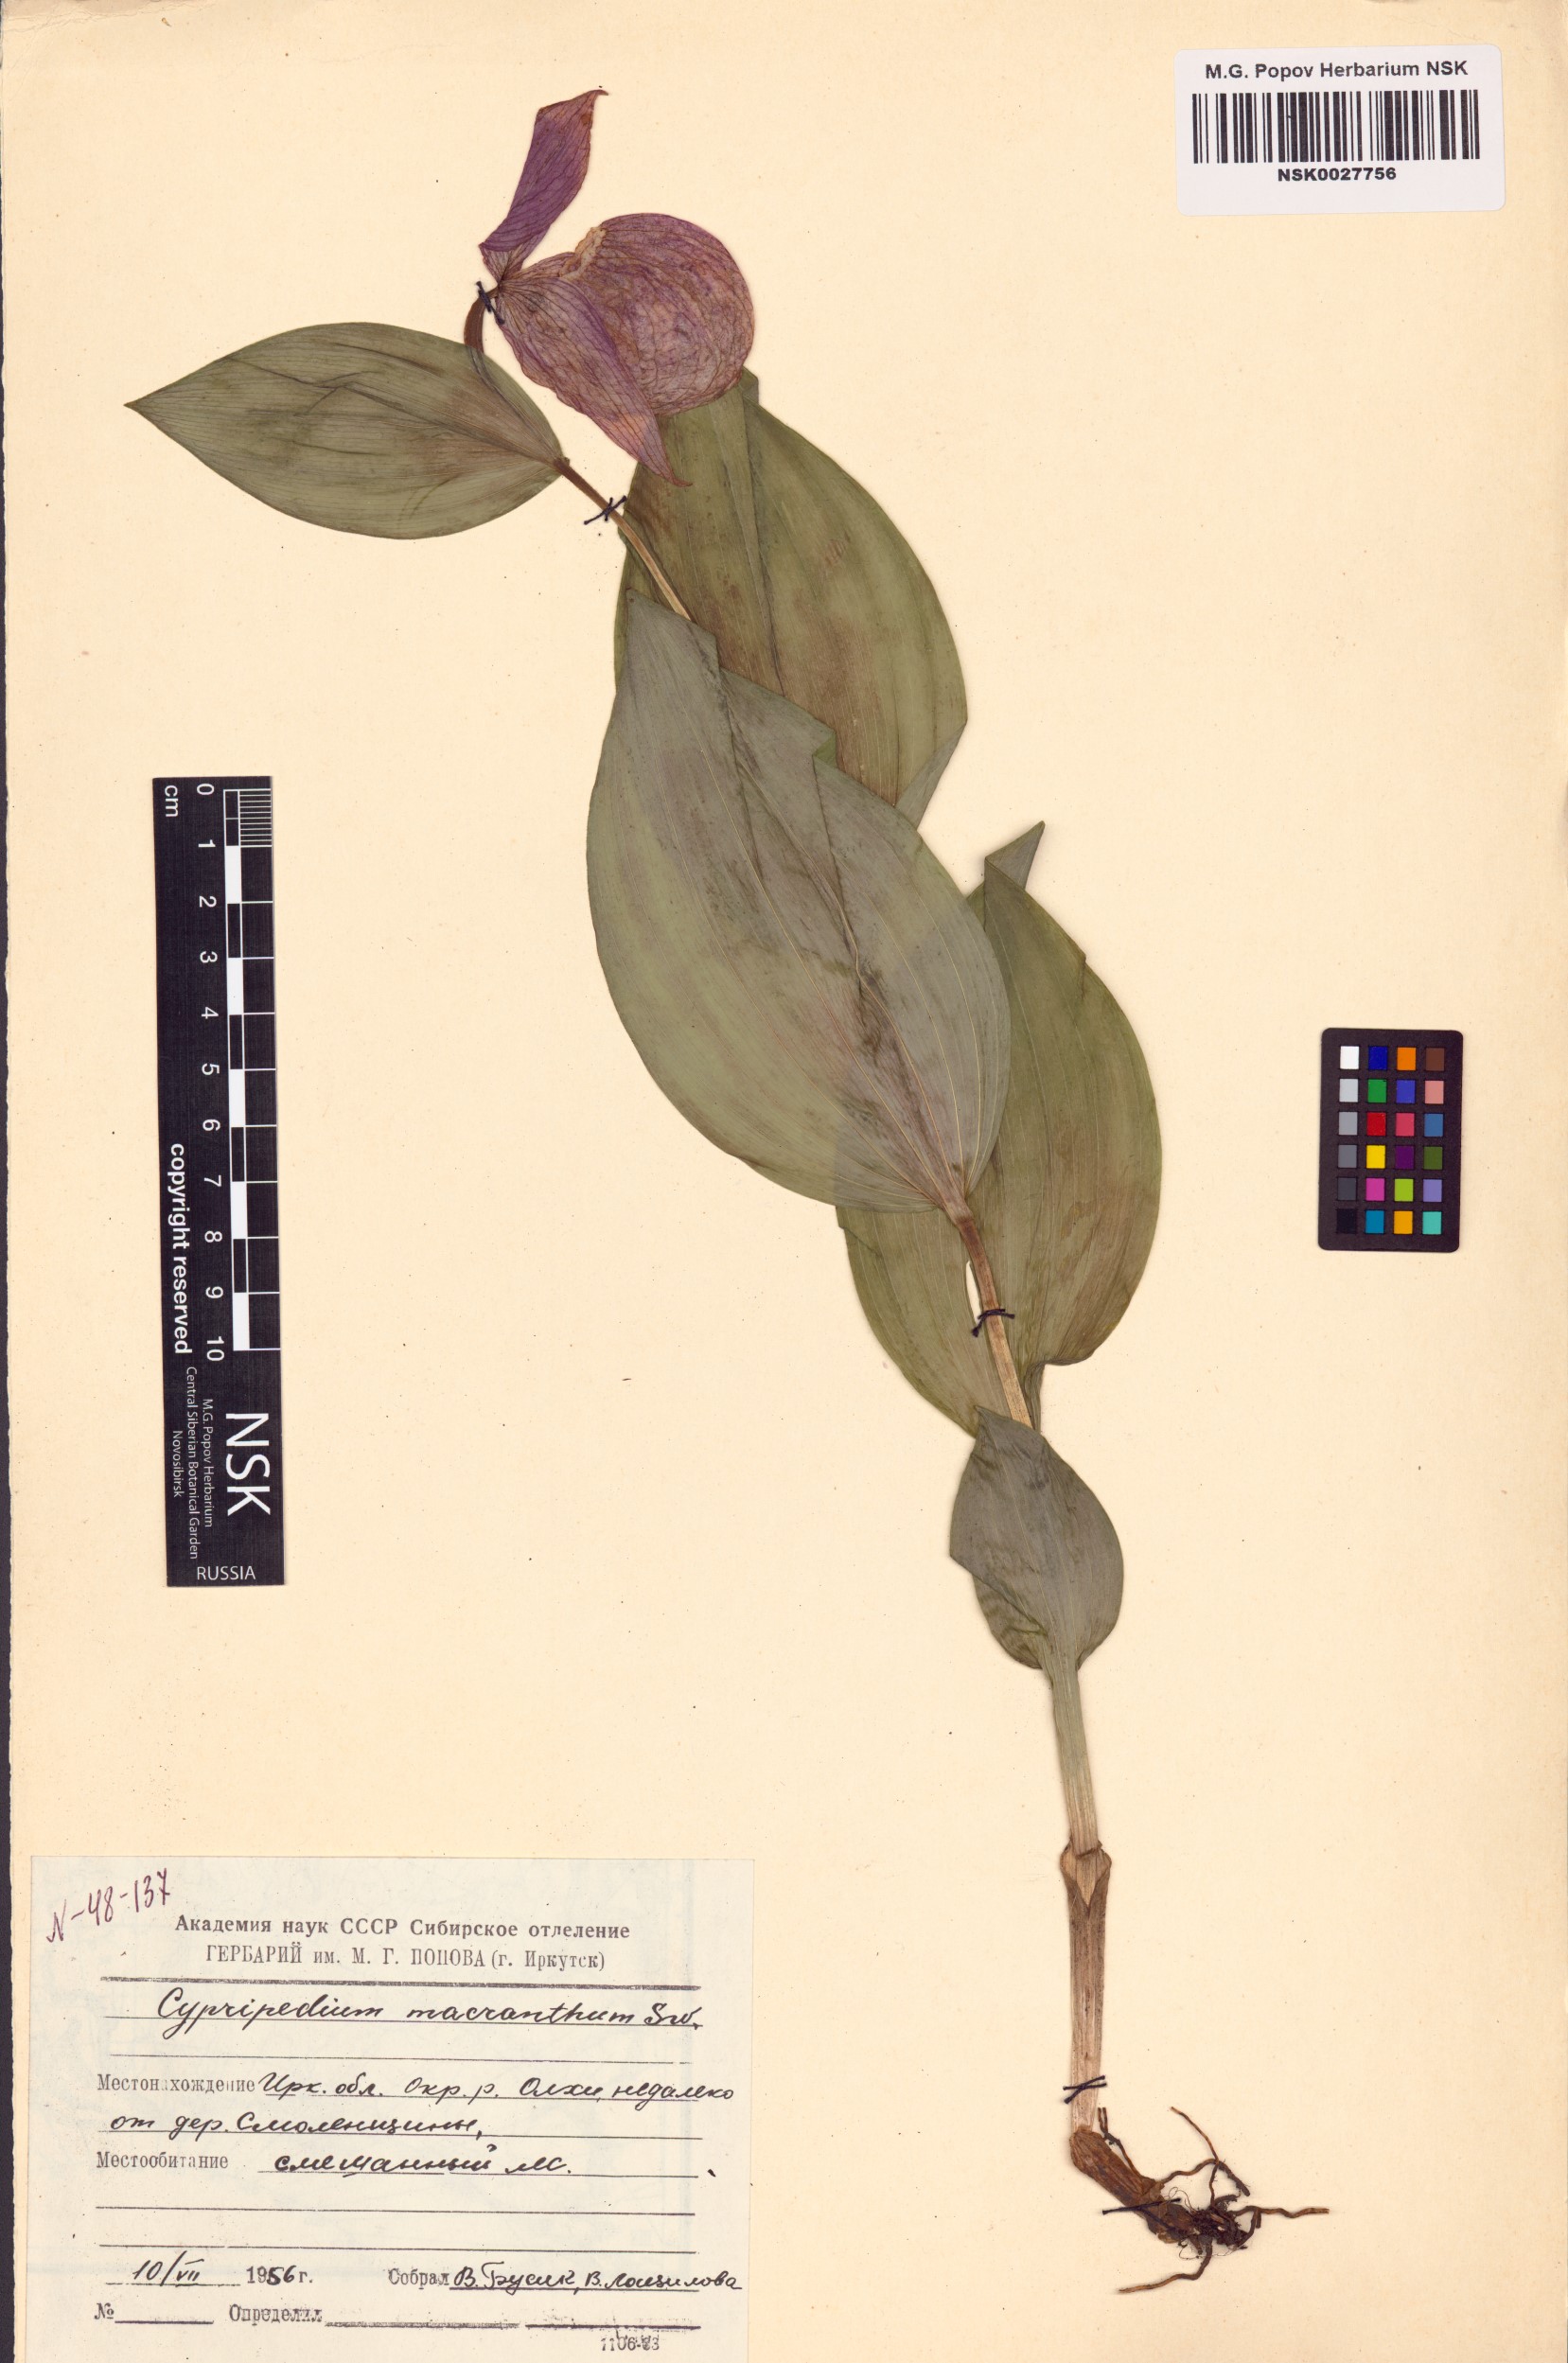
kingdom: Plantae
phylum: Tracheophyta
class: Liliopsida
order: Asparagales
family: Orchidaceae
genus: Cypripedium
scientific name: Cypripedium macranthos
